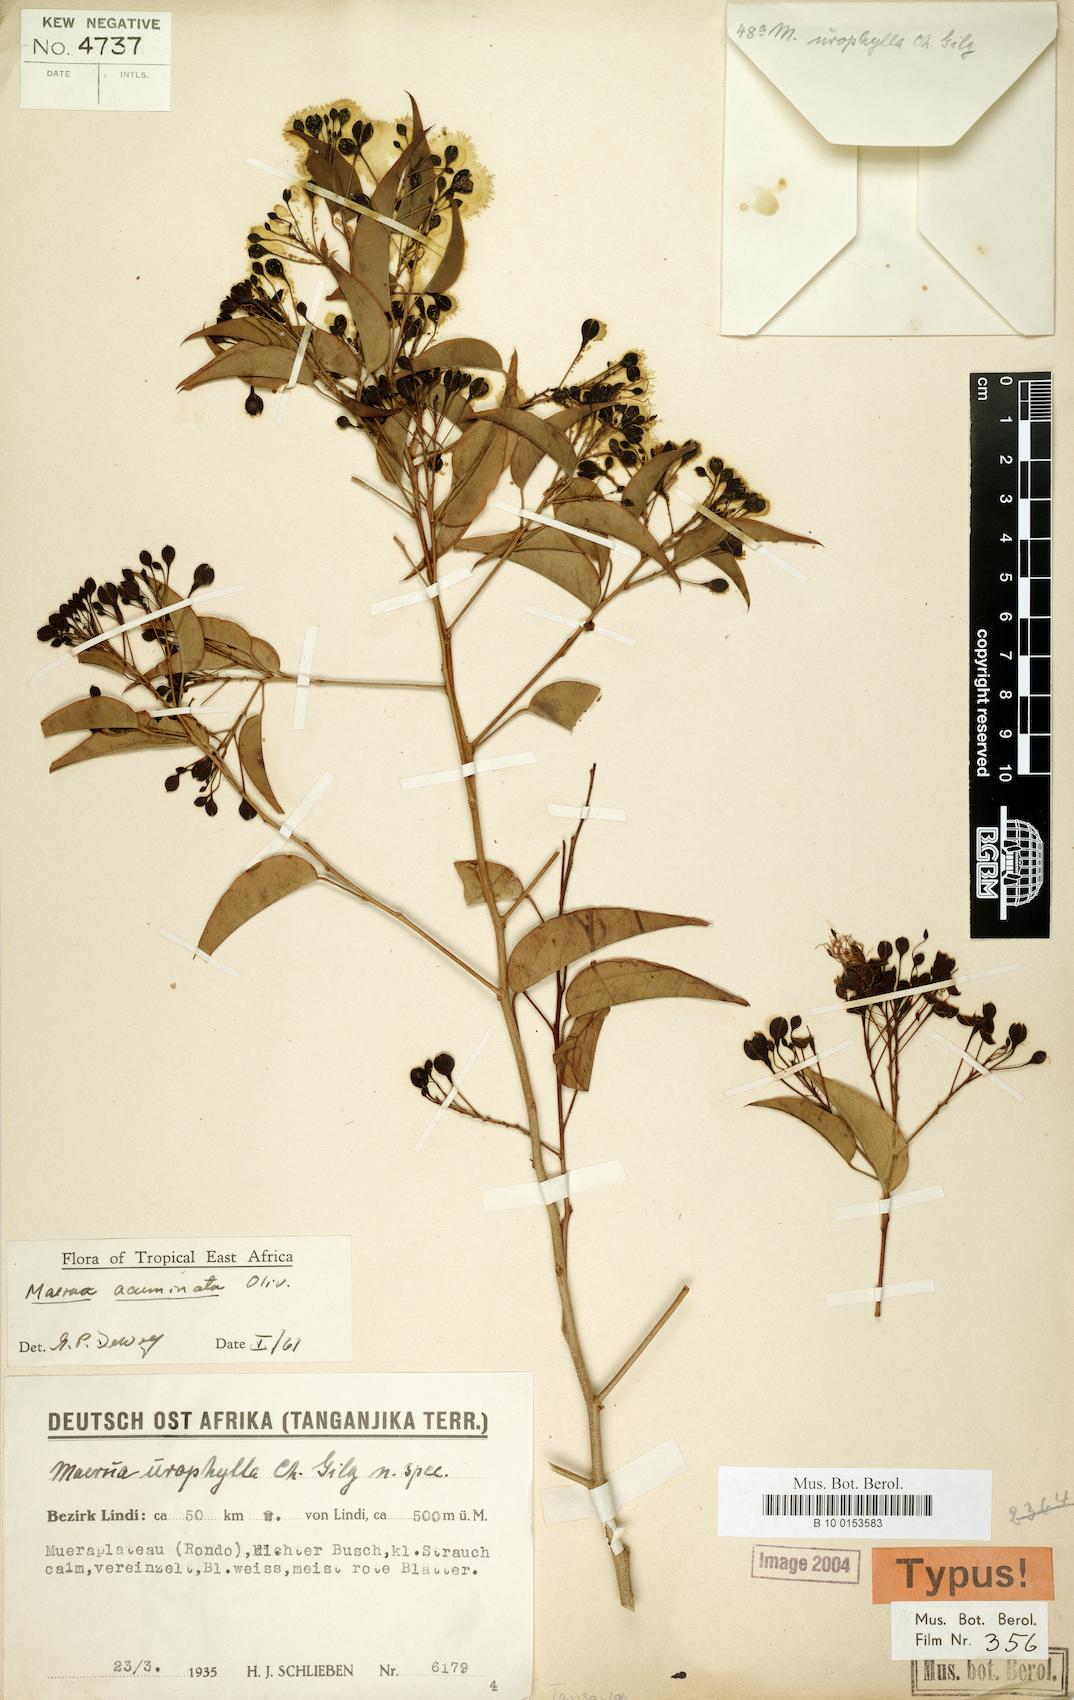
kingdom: Plantae
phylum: Tracheophyta
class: Magnoliopsida
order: Brassicales
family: Capparaceae
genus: Maerua
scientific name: Maerua acuminata
